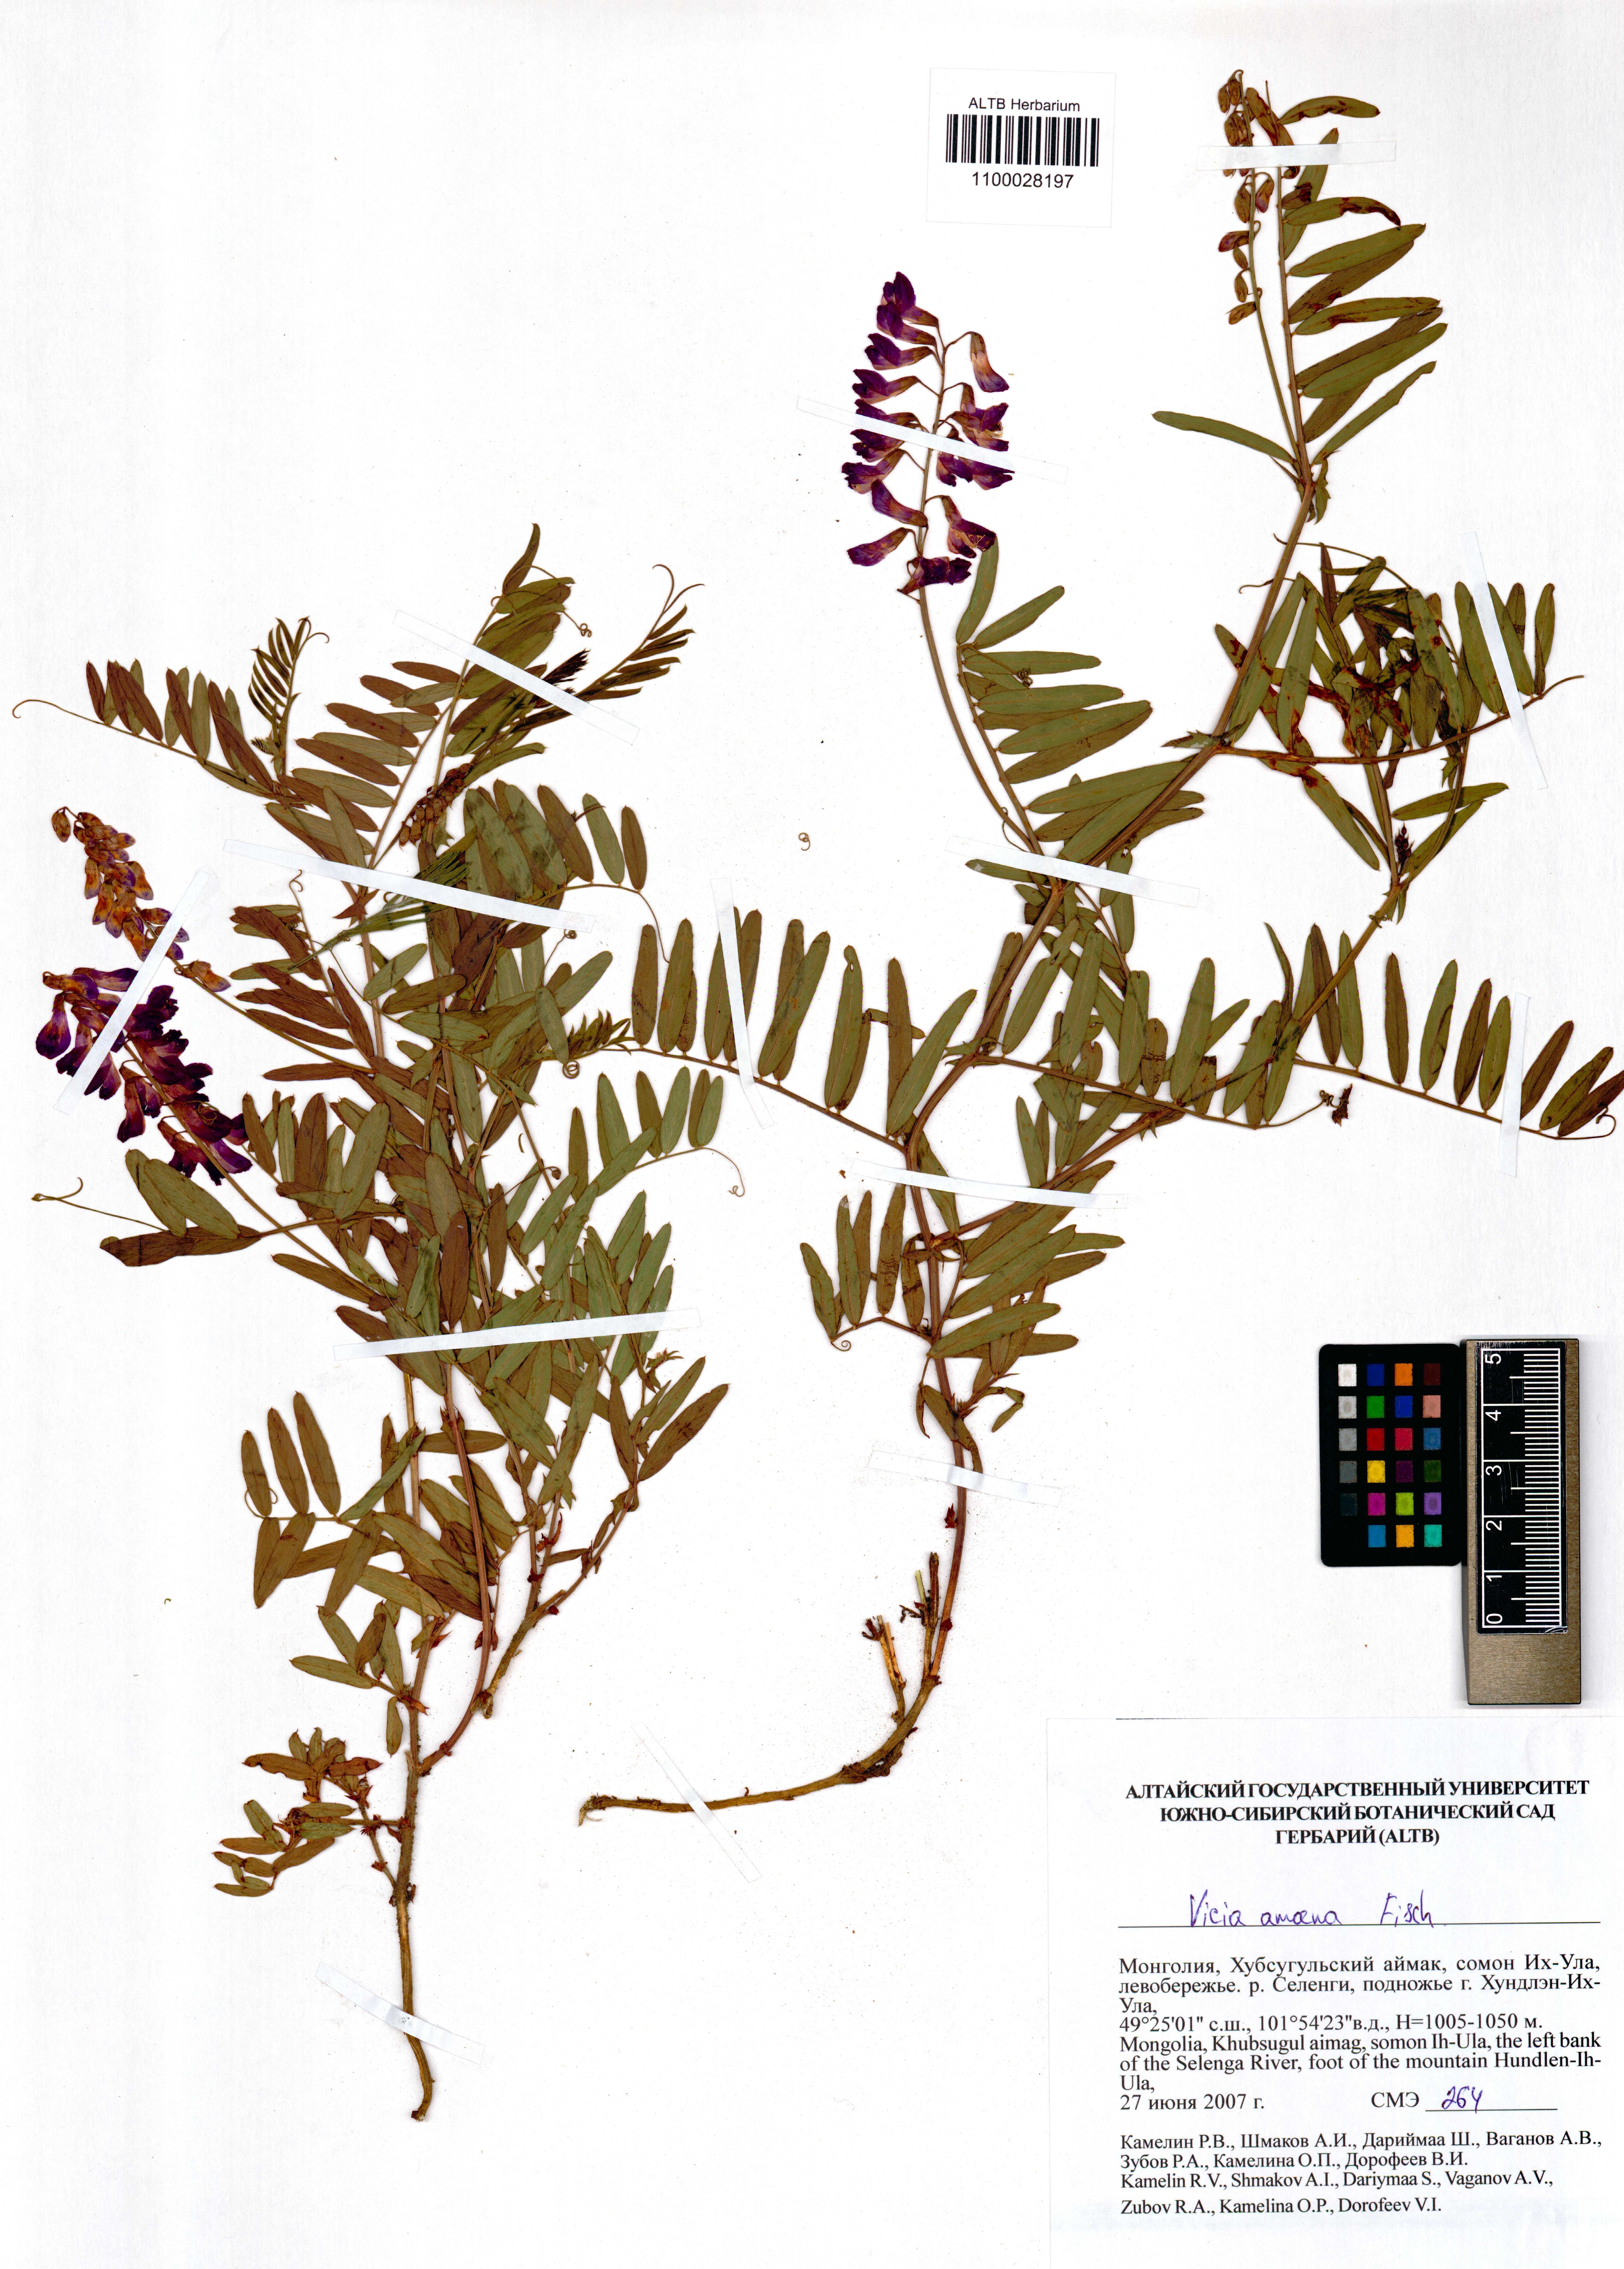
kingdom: Plantae
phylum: Tracheophyta
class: Magnoliopsida
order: Fabales
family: Fabaceae
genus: Vicia
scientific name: Vicia amoena
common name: Cheder ebs
